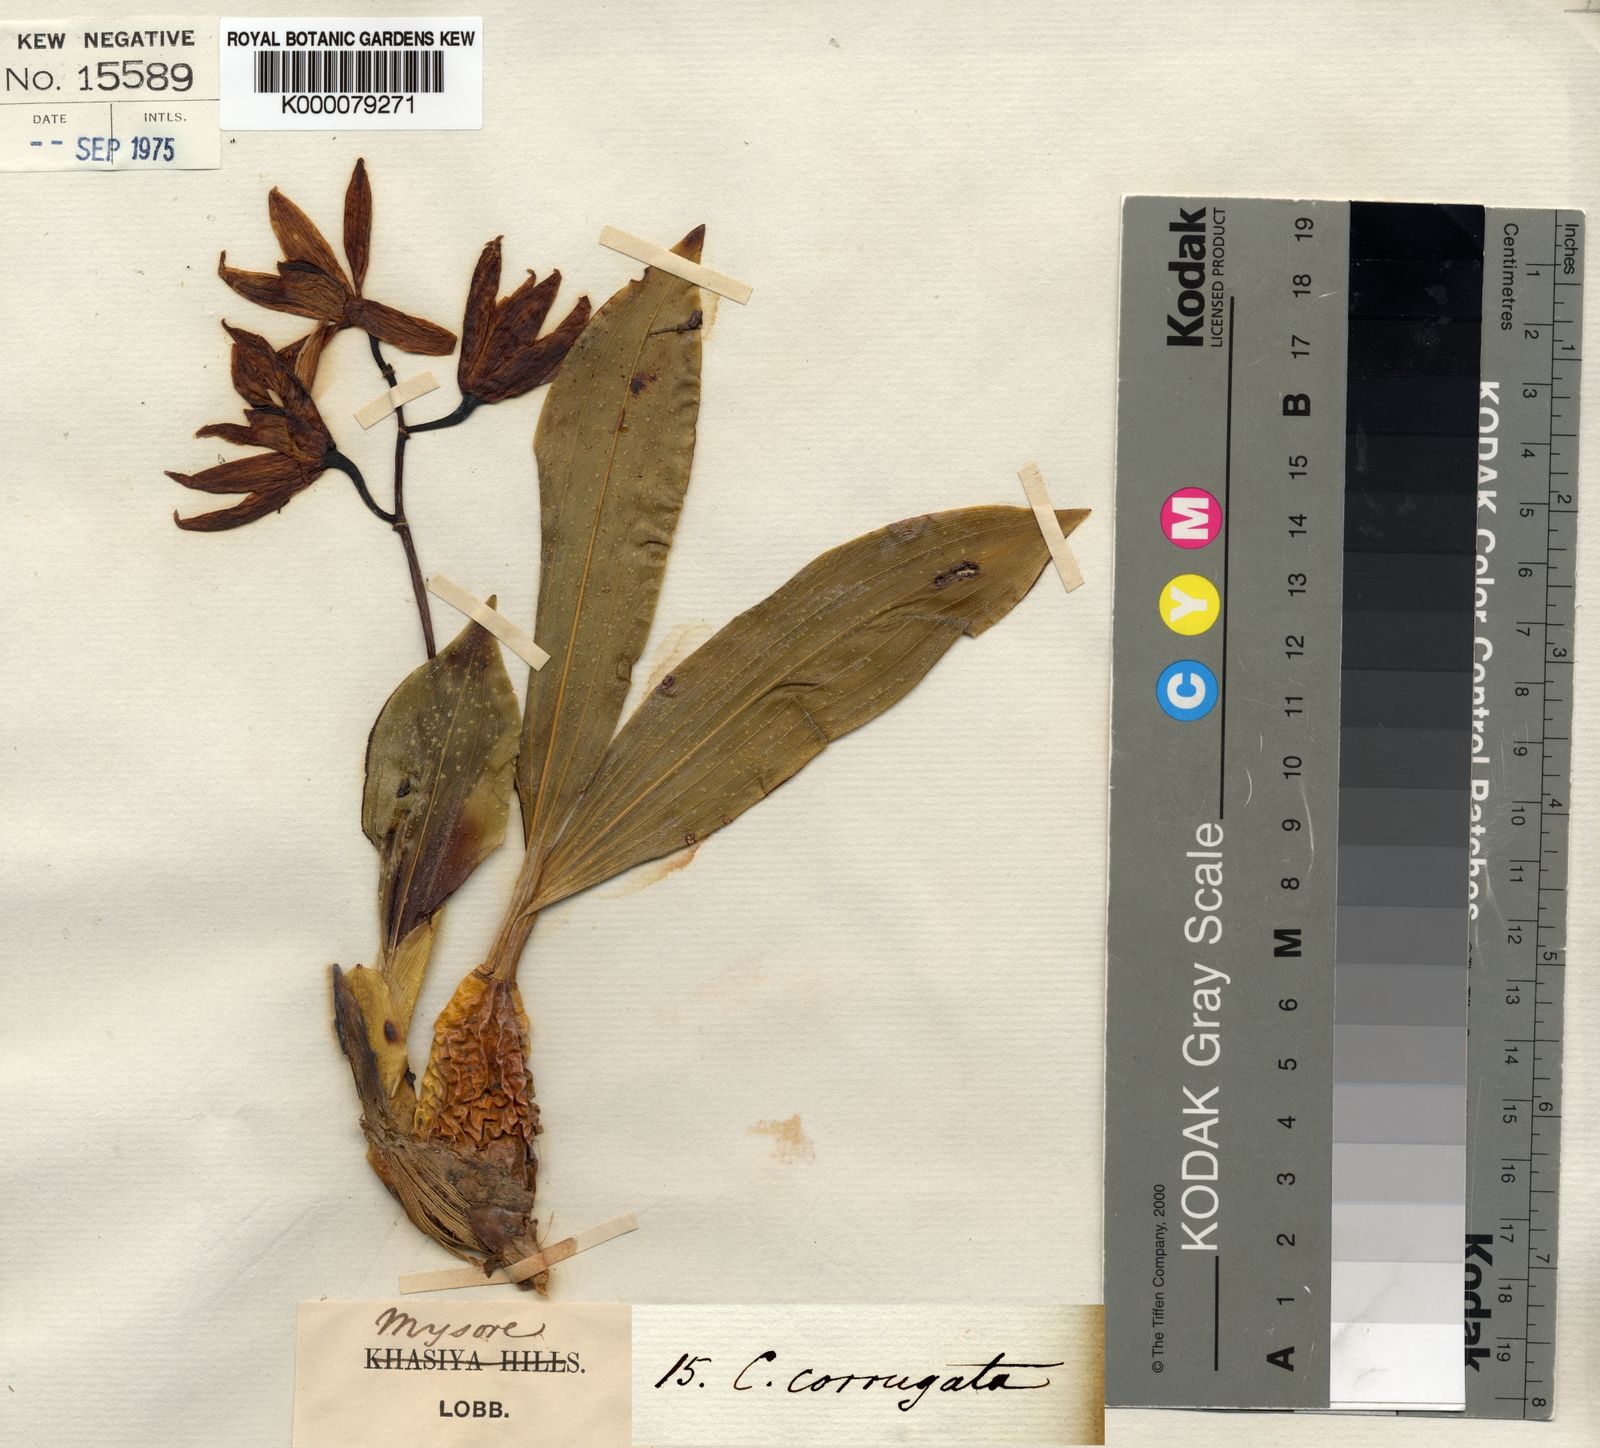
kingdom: Plantae
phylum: Tracheophyta
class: Liliopsida
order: Asparagales
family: Orchidaceae
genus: Coelogyne
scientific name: Coelogyne nervosa
